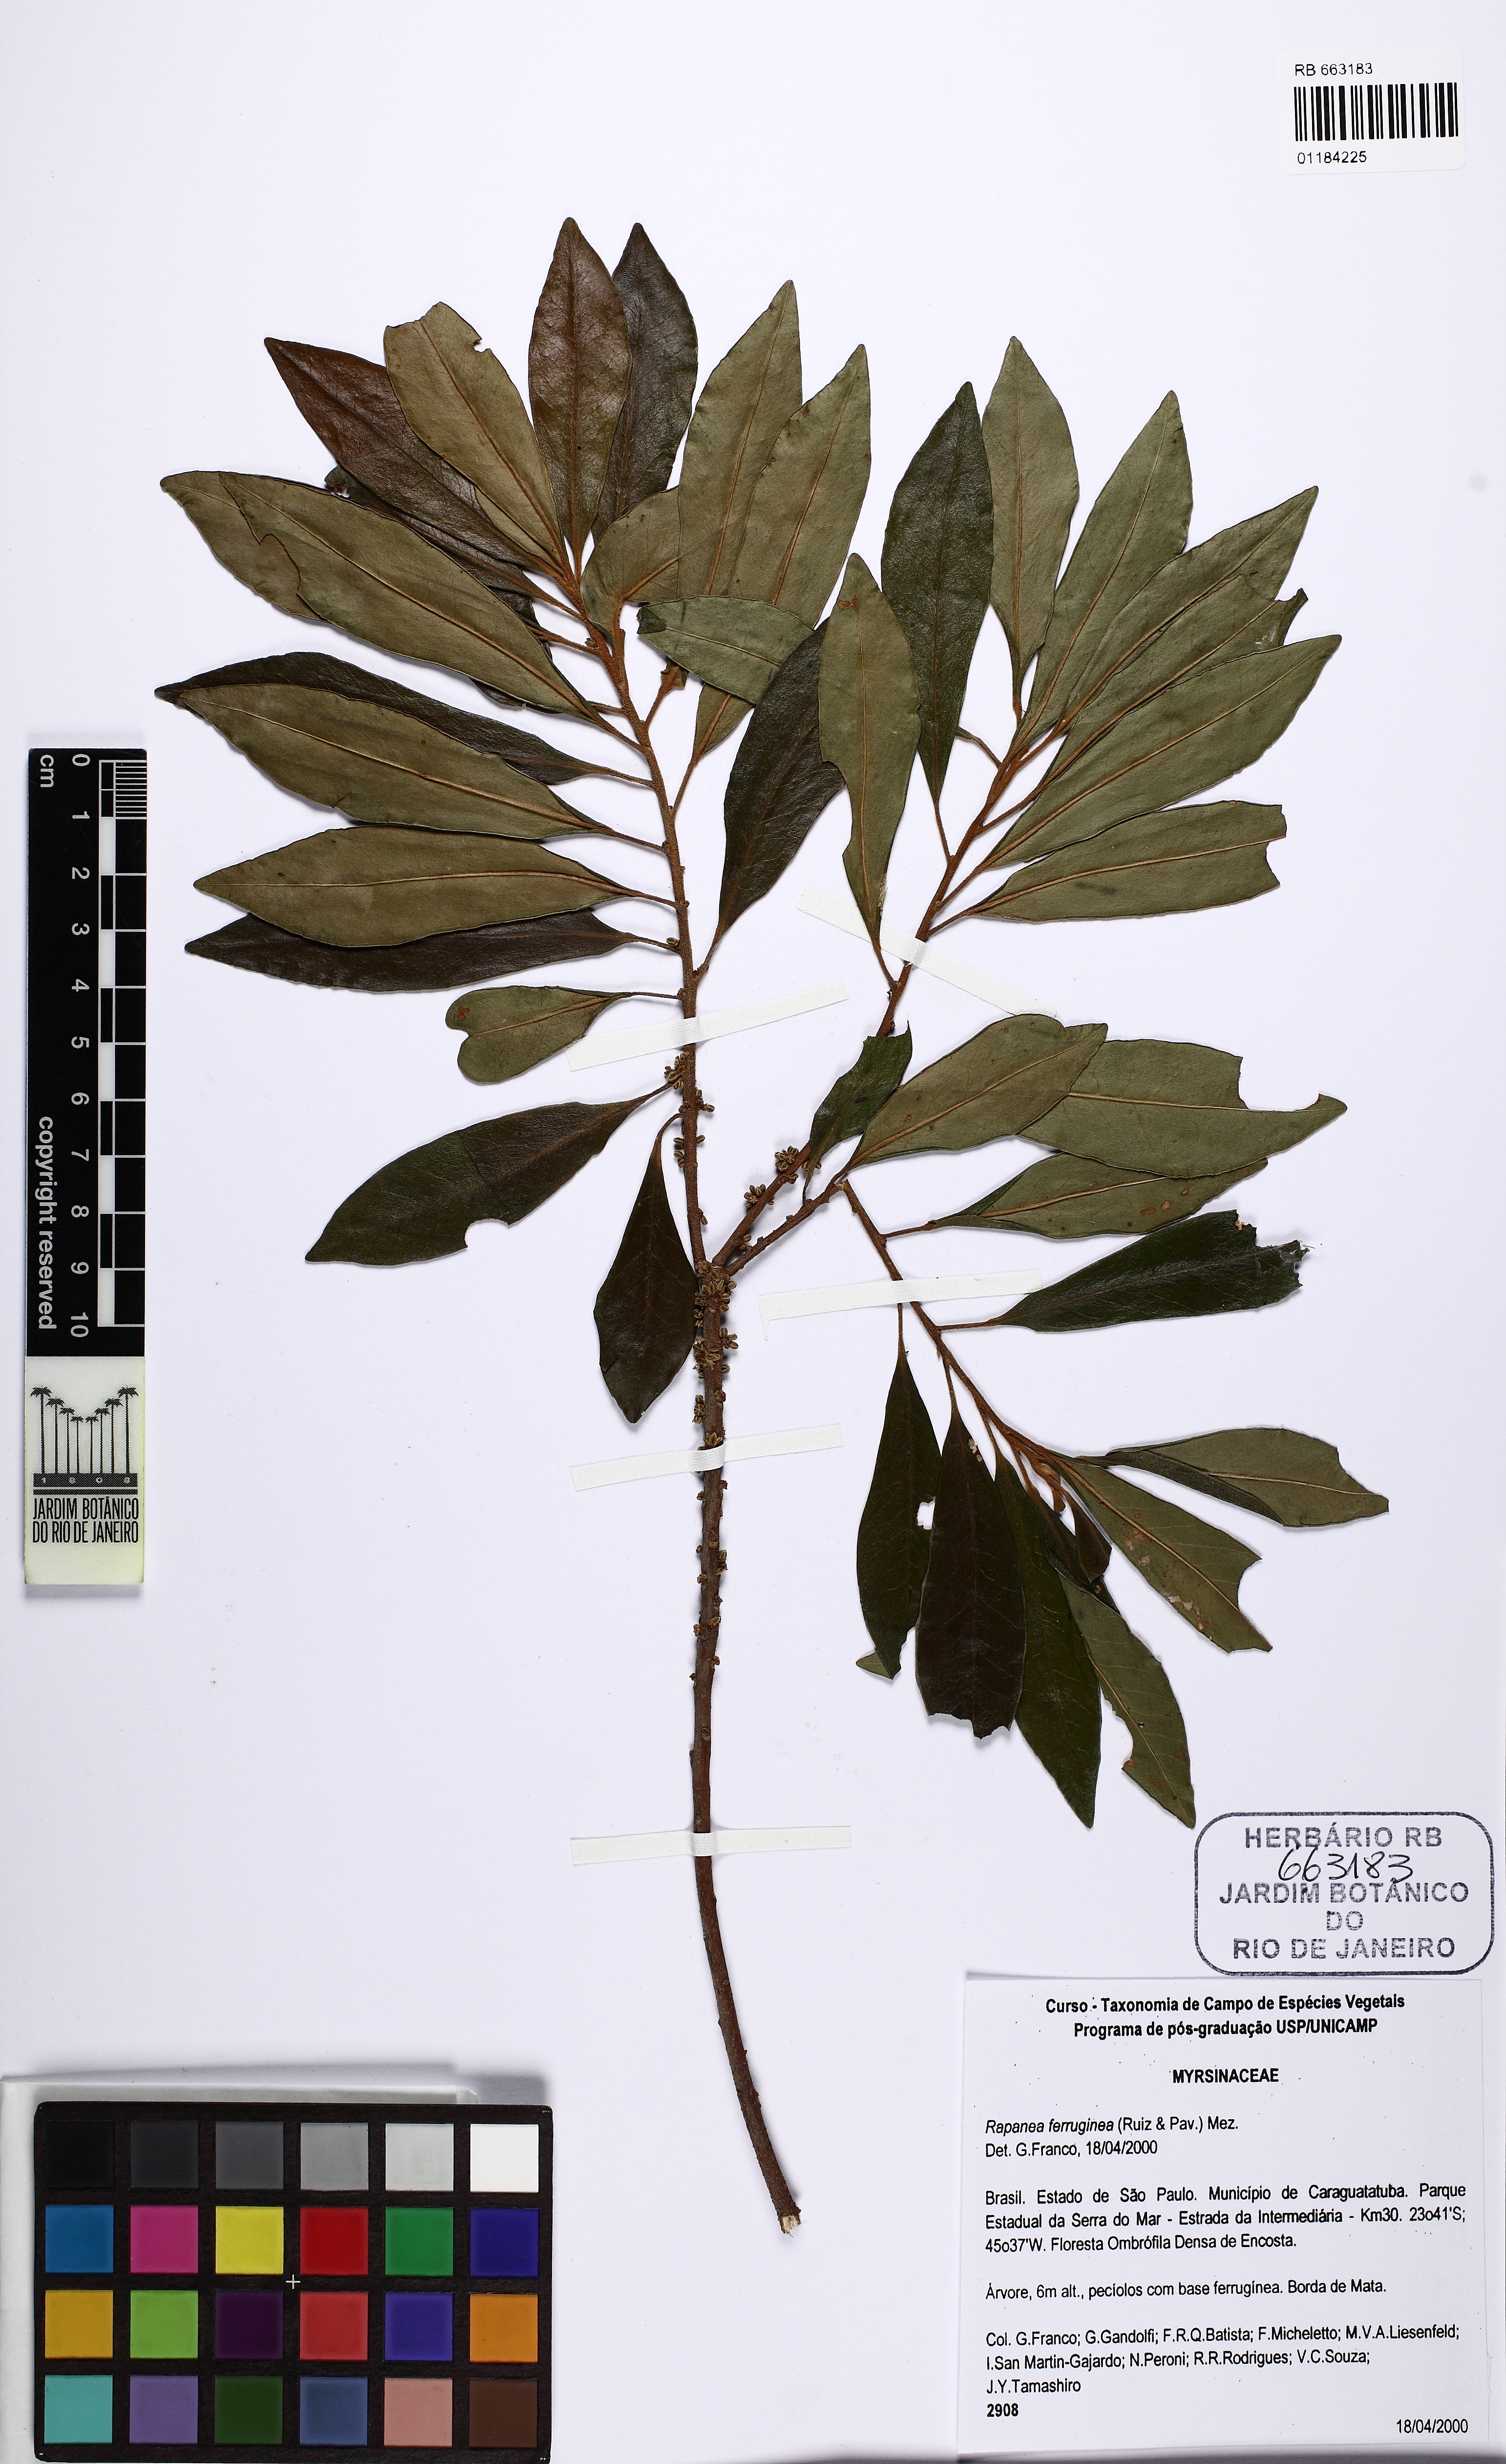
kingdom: Plantae
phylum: Tracheophyta
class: Magnoliopsida
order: Ericales
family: Primulaceae
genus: Myrsine
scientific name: Myrsine coriacea
